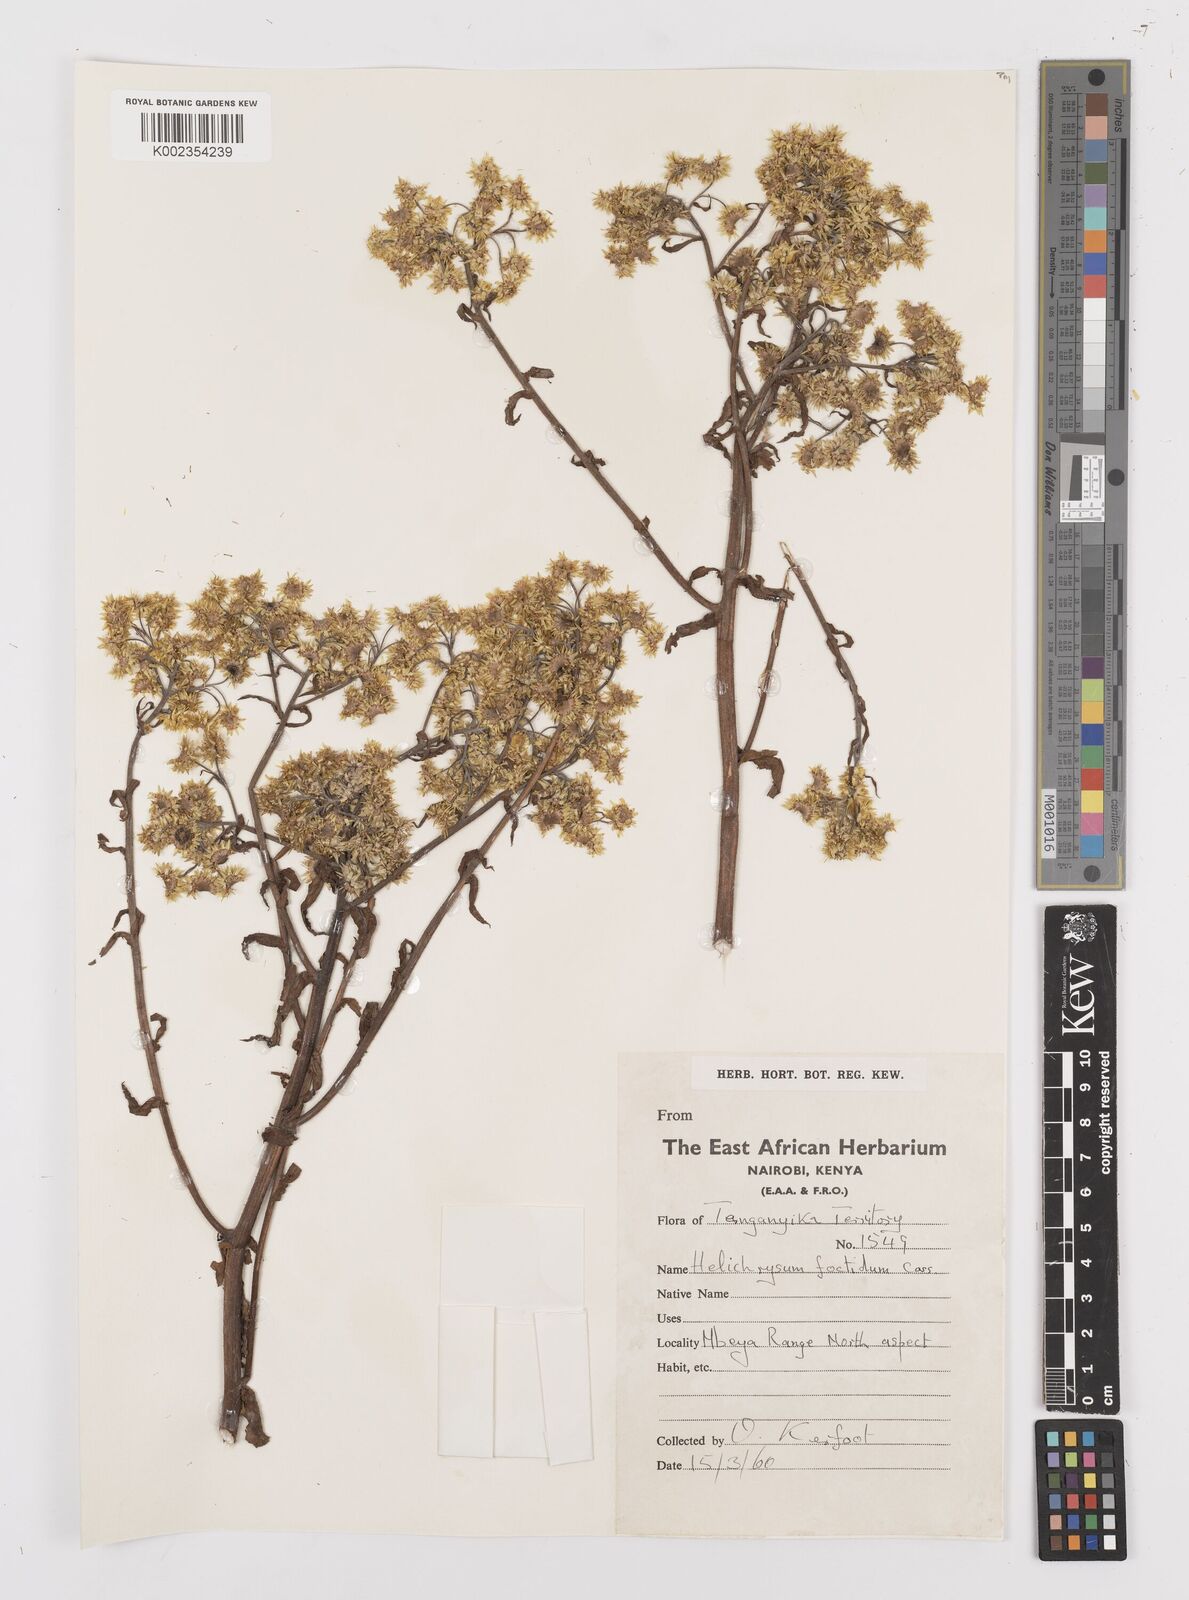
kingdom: Plantae
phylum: Tracheophyta
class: Magnoliopsida
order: Asterales
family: Asteraceae
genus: Helichrysum
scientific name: Helichrysum
